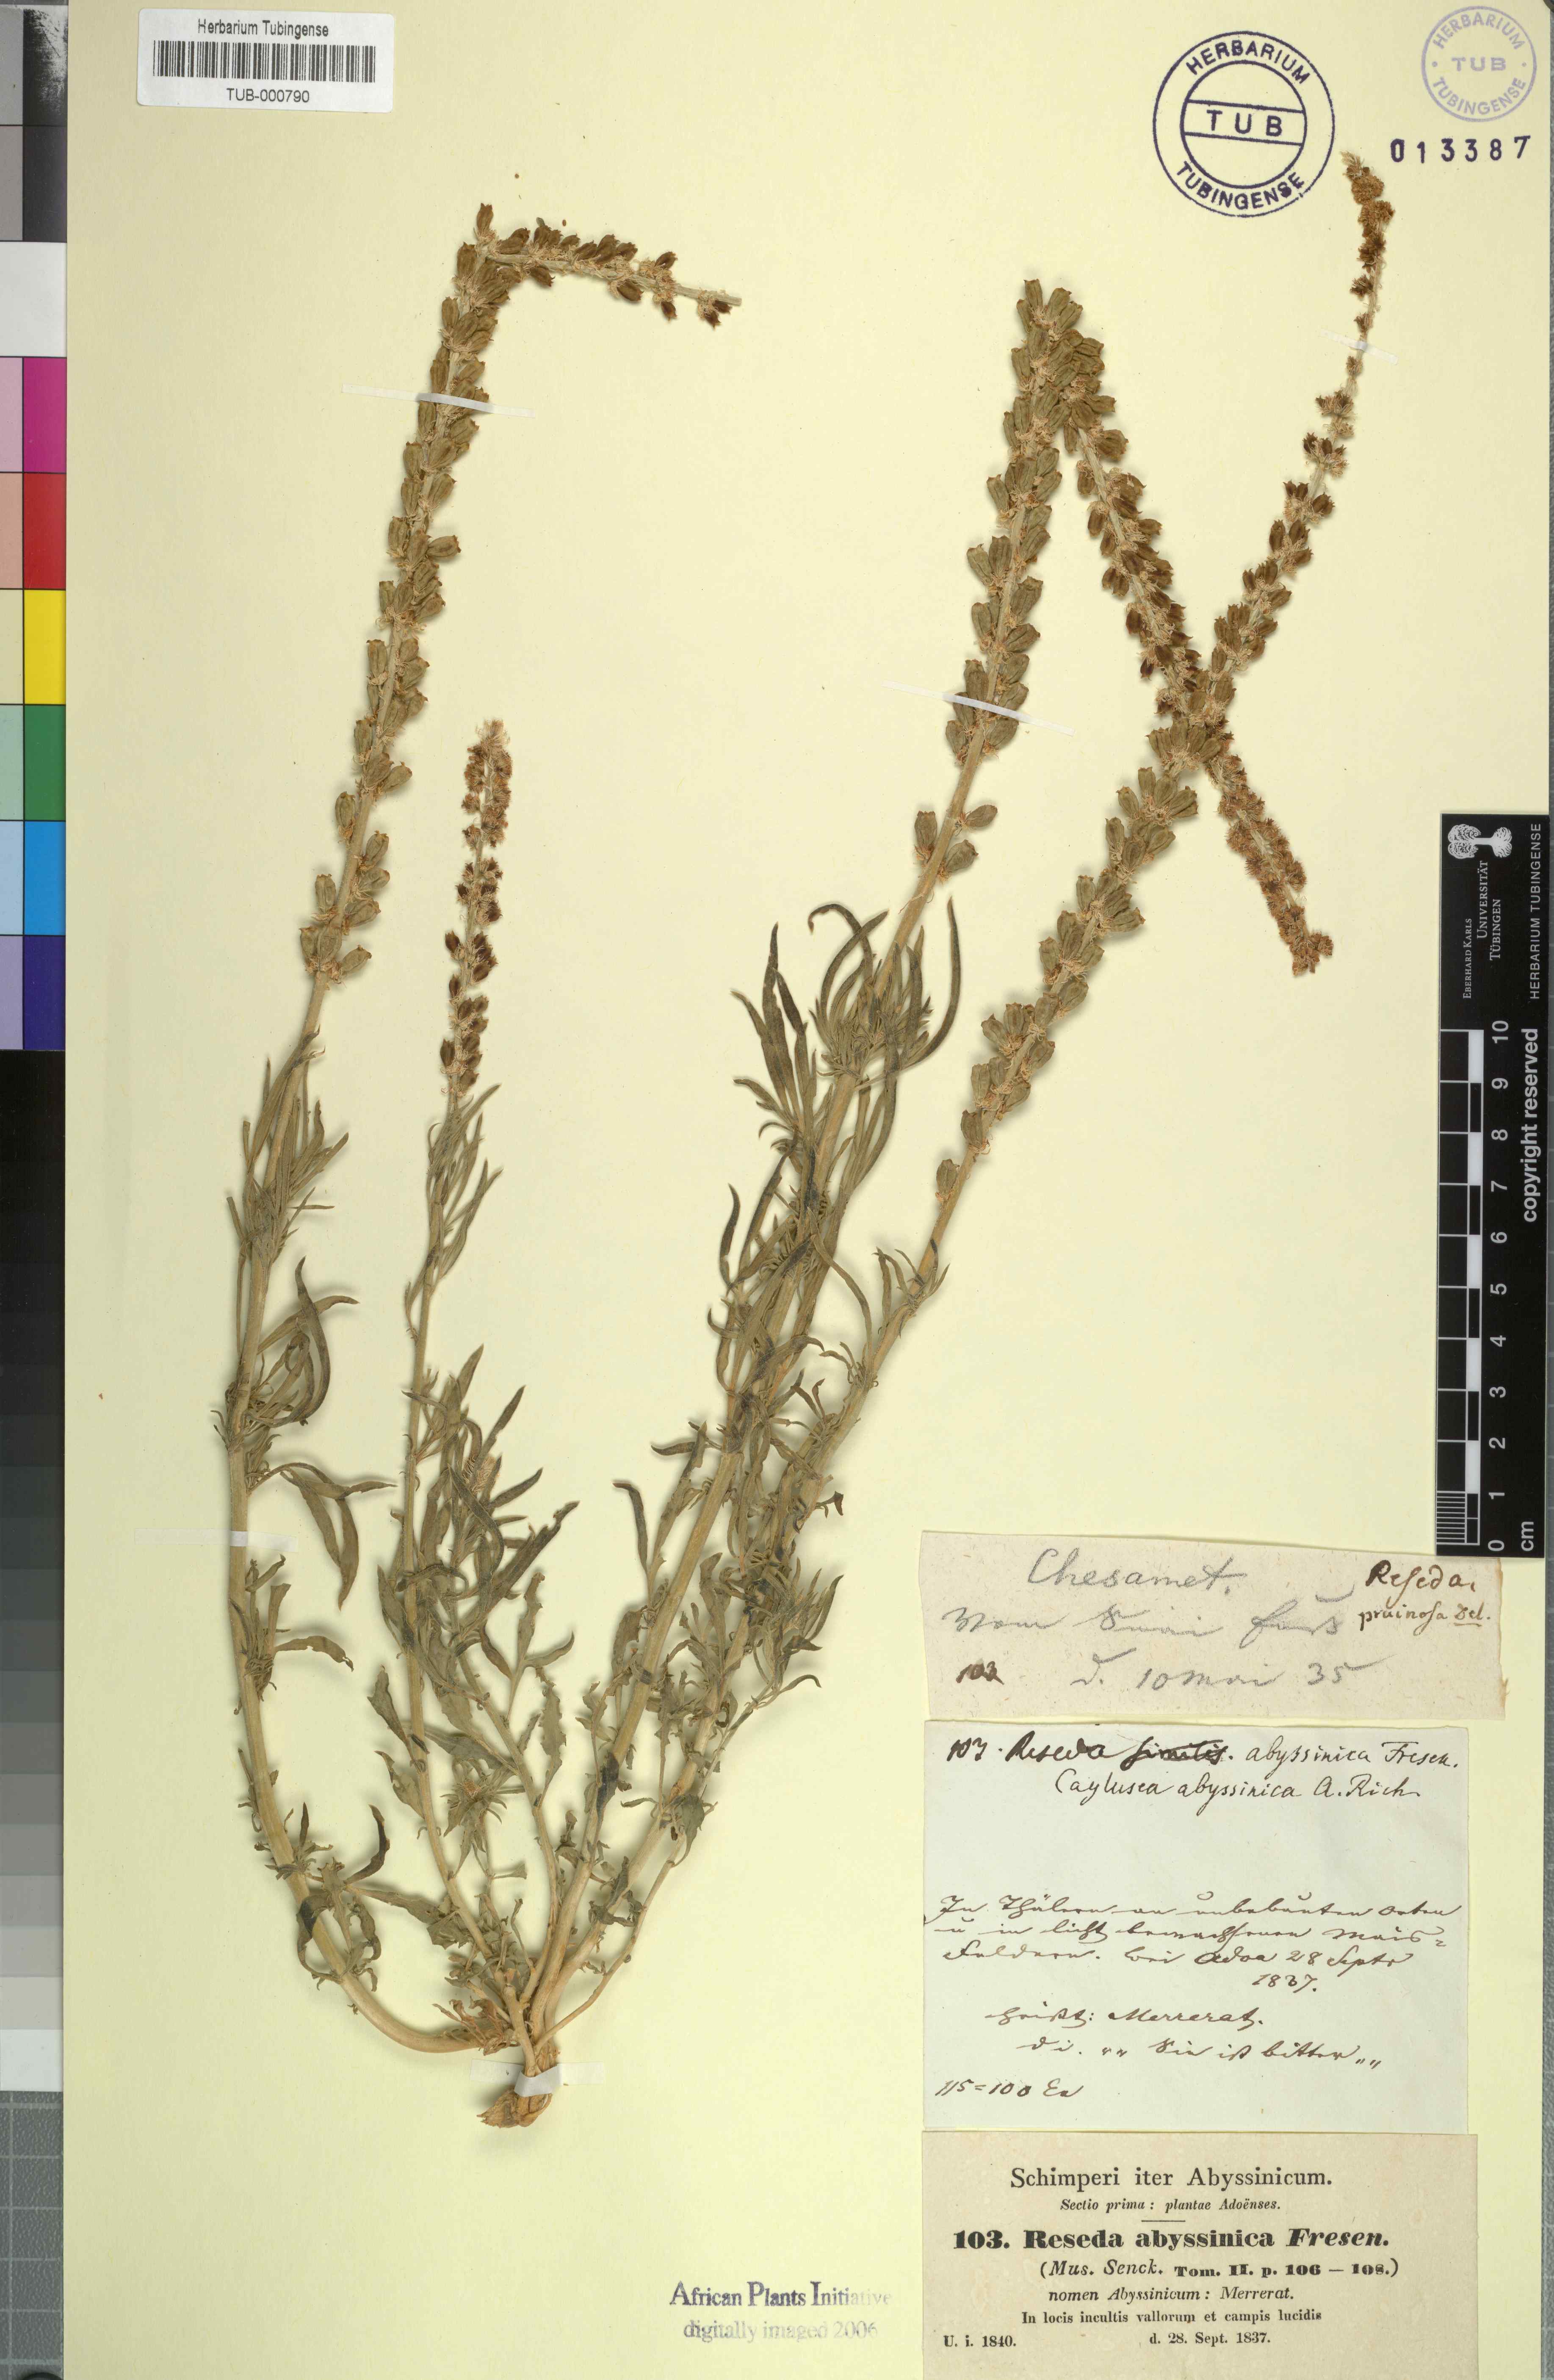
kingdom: Plantae
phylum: Tracheophyta
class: Magnoliopsida
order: Brassicales
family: Resedaceae
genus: Reseda
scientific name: Reseda pruinosa
